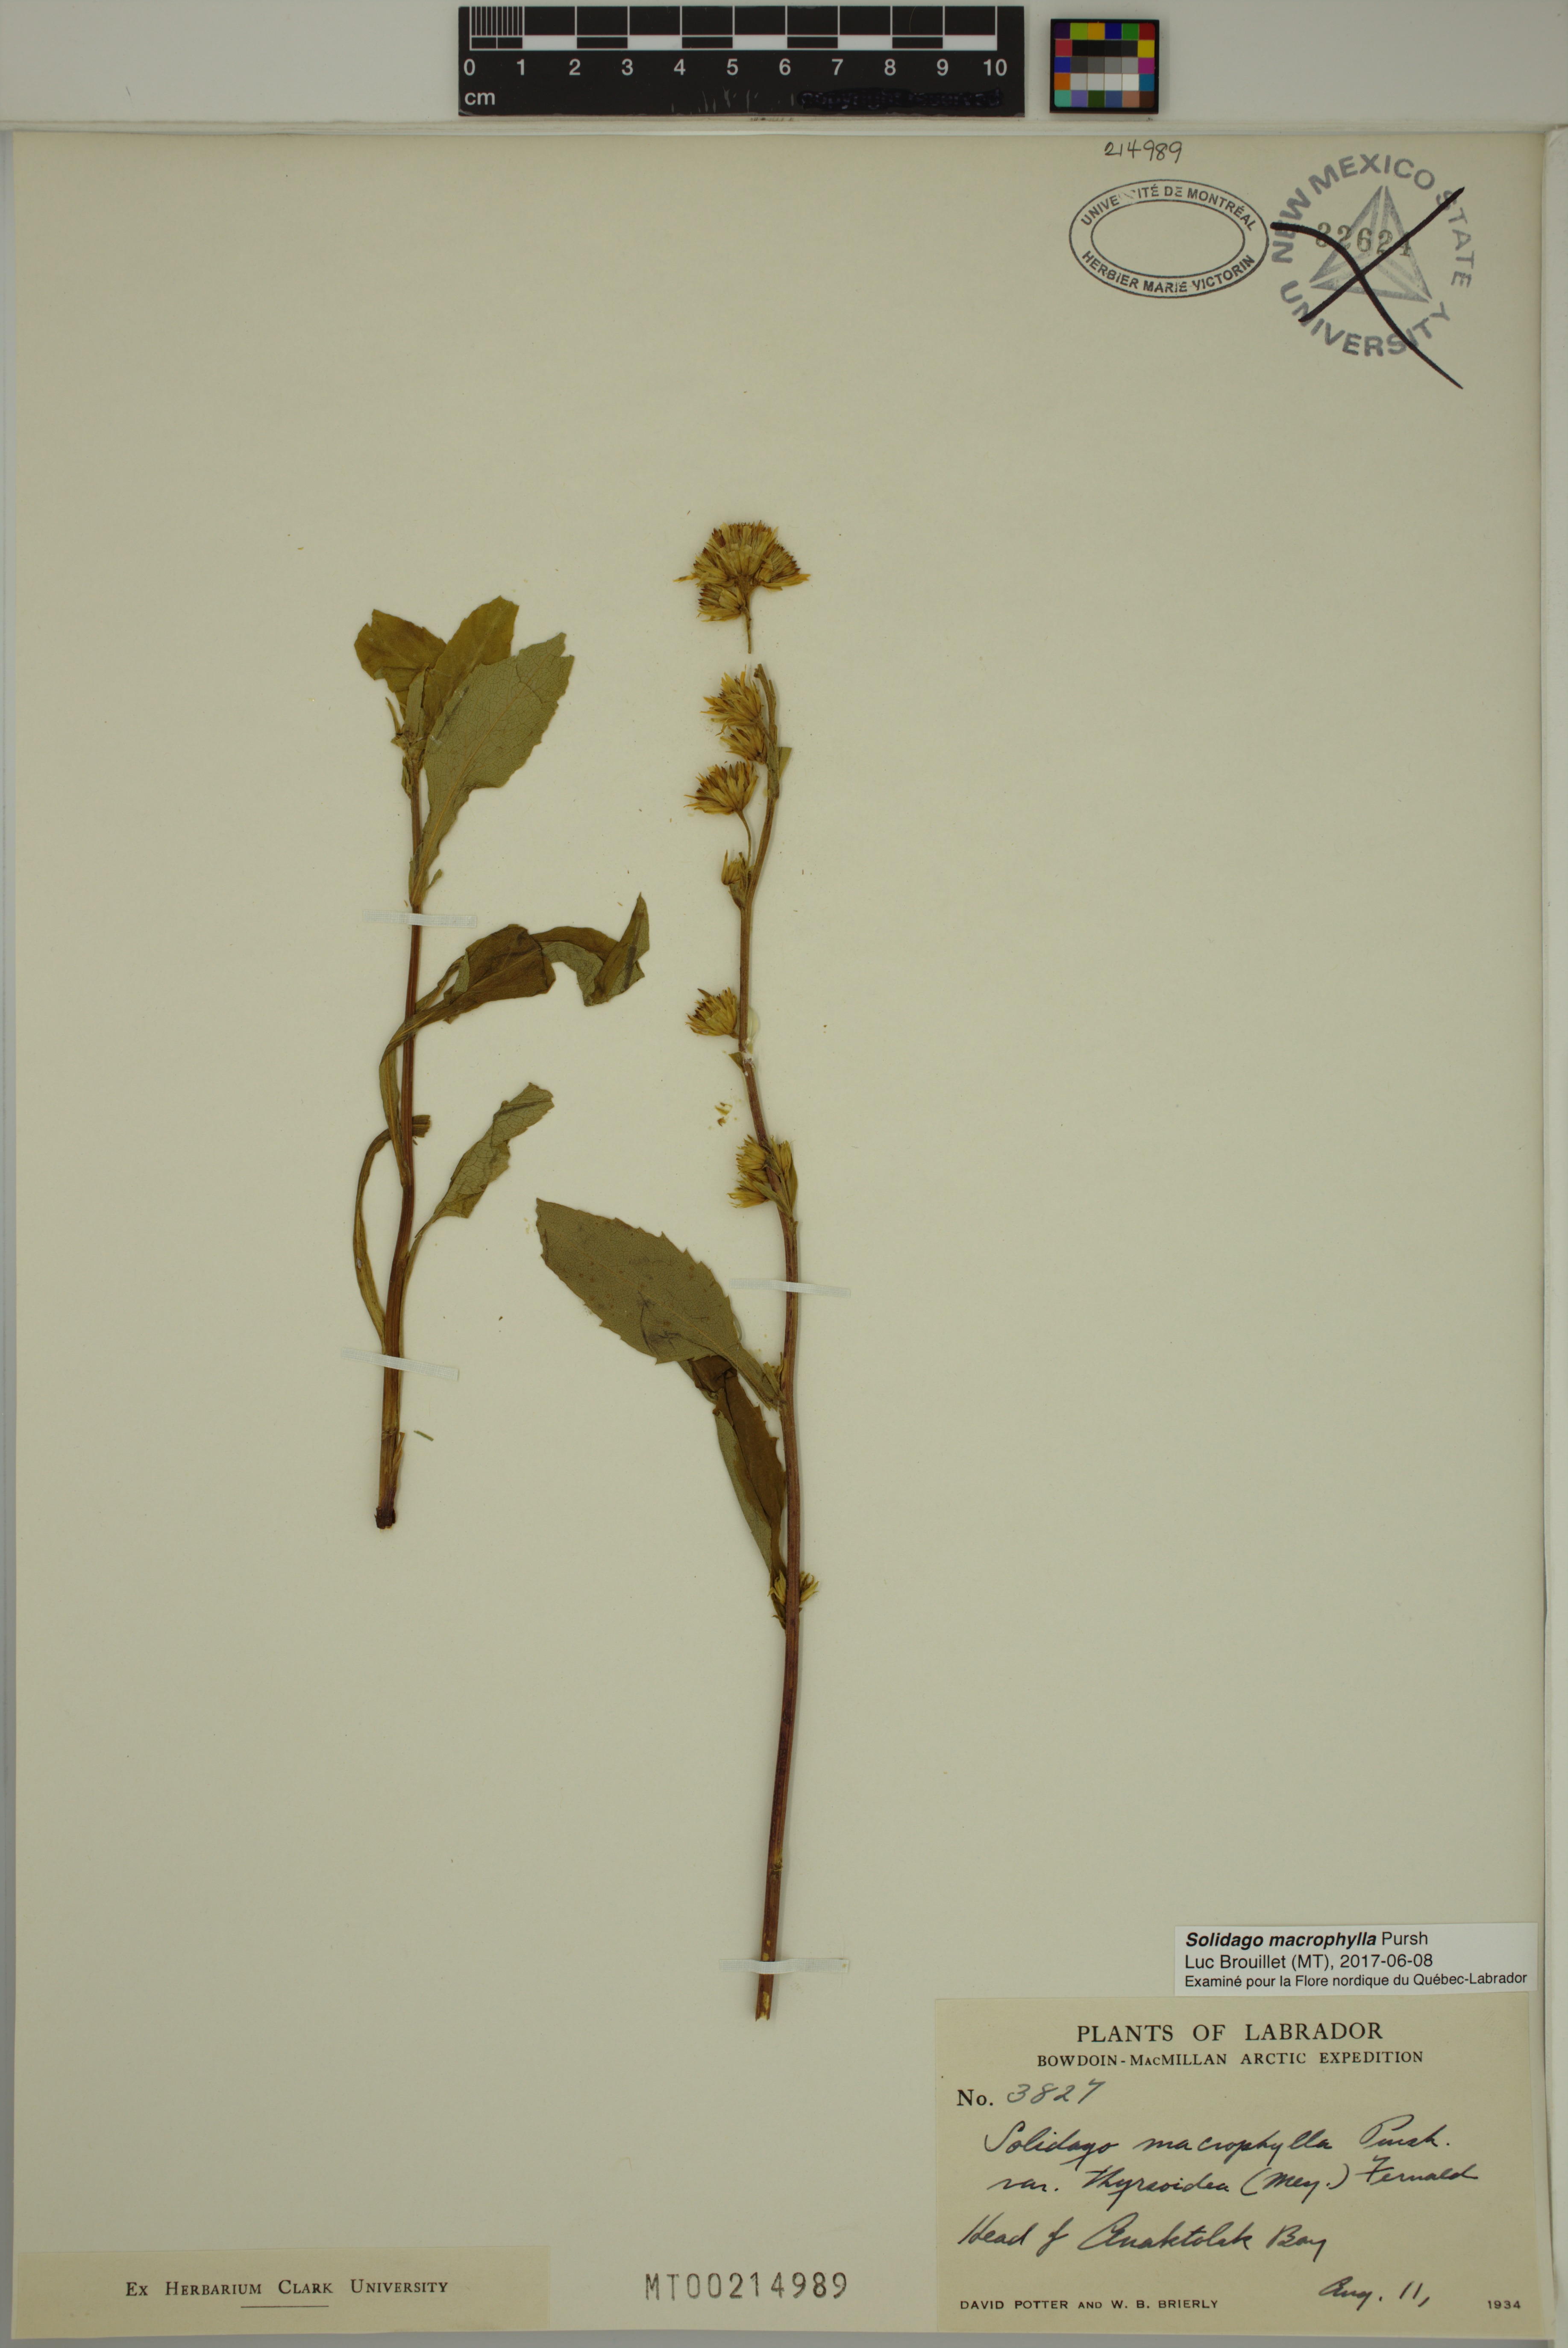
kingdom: Plantae
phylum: Tracheophyta
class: Magnoliopsida
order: Asterales
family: Asteraceae
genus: Solidago
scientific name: Solidago macrophylla
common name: Large-leaved goldenrod
